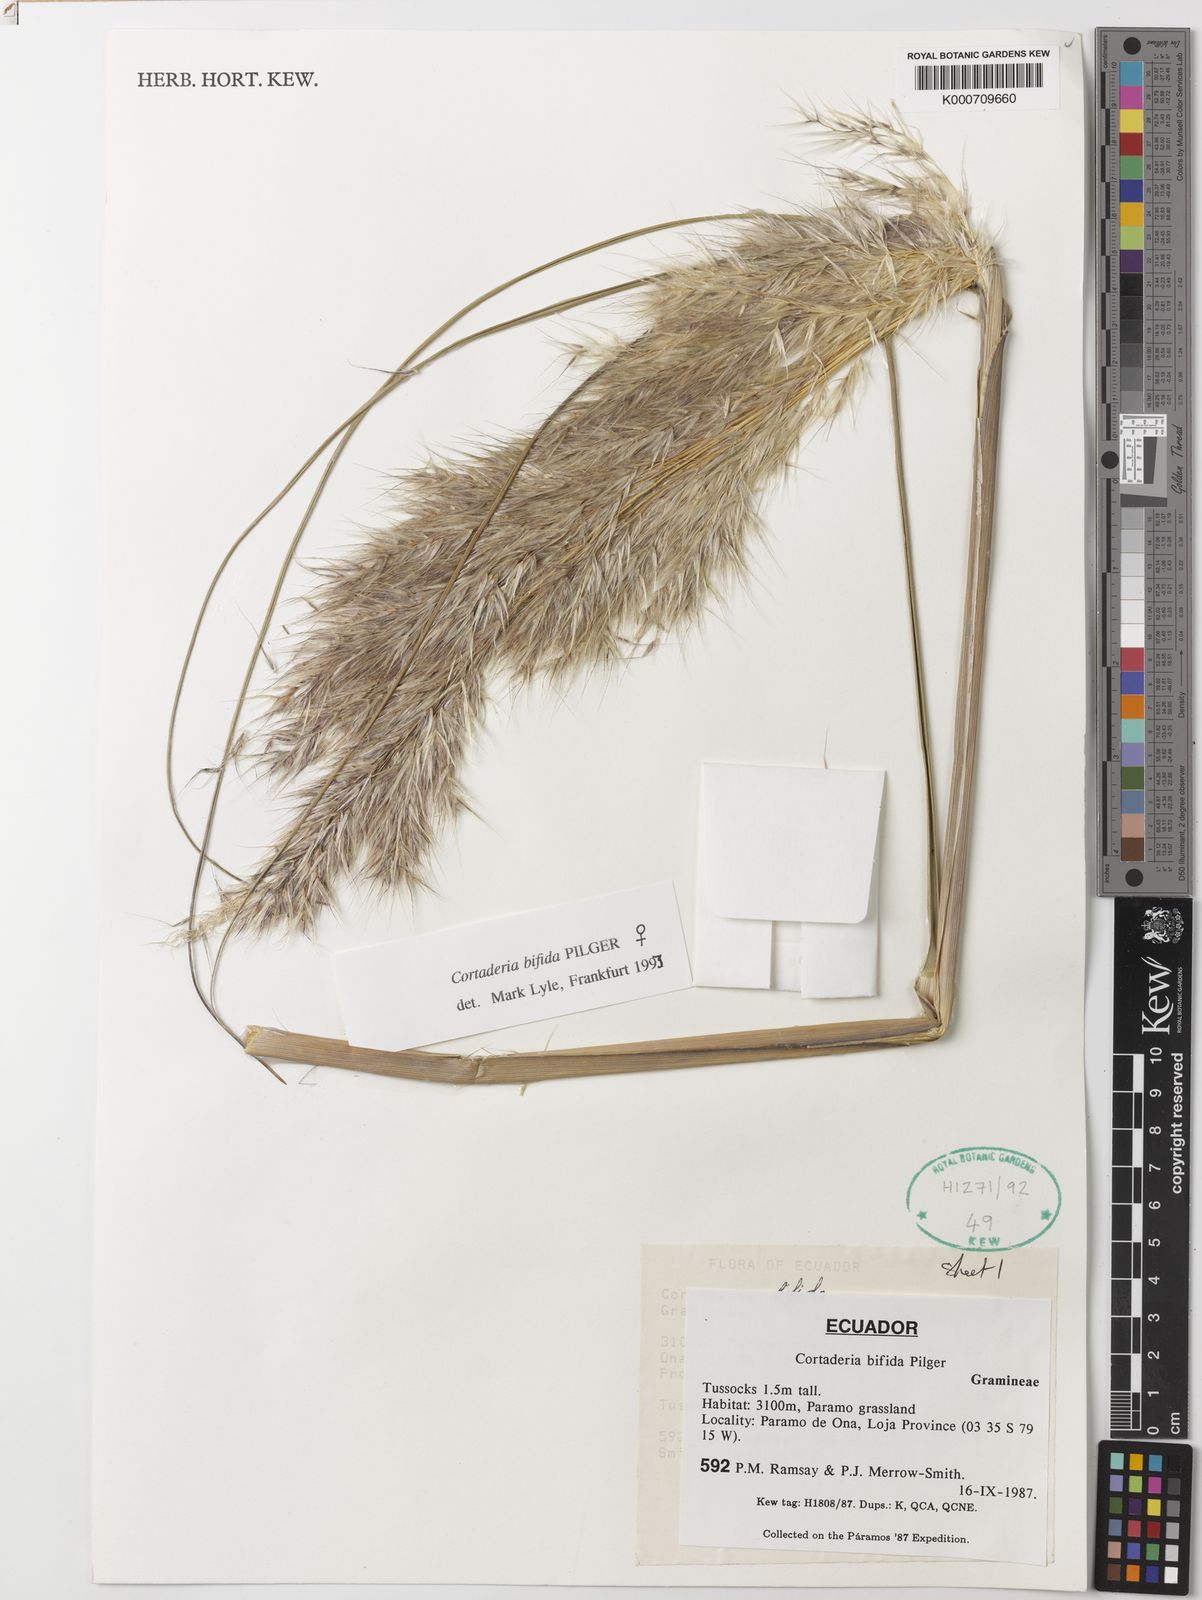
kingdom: Plantae
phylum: Tracheophyta
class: Liliopsida
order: Poales
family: Poaceae
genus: Cortaderia
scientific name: Cortaderia
